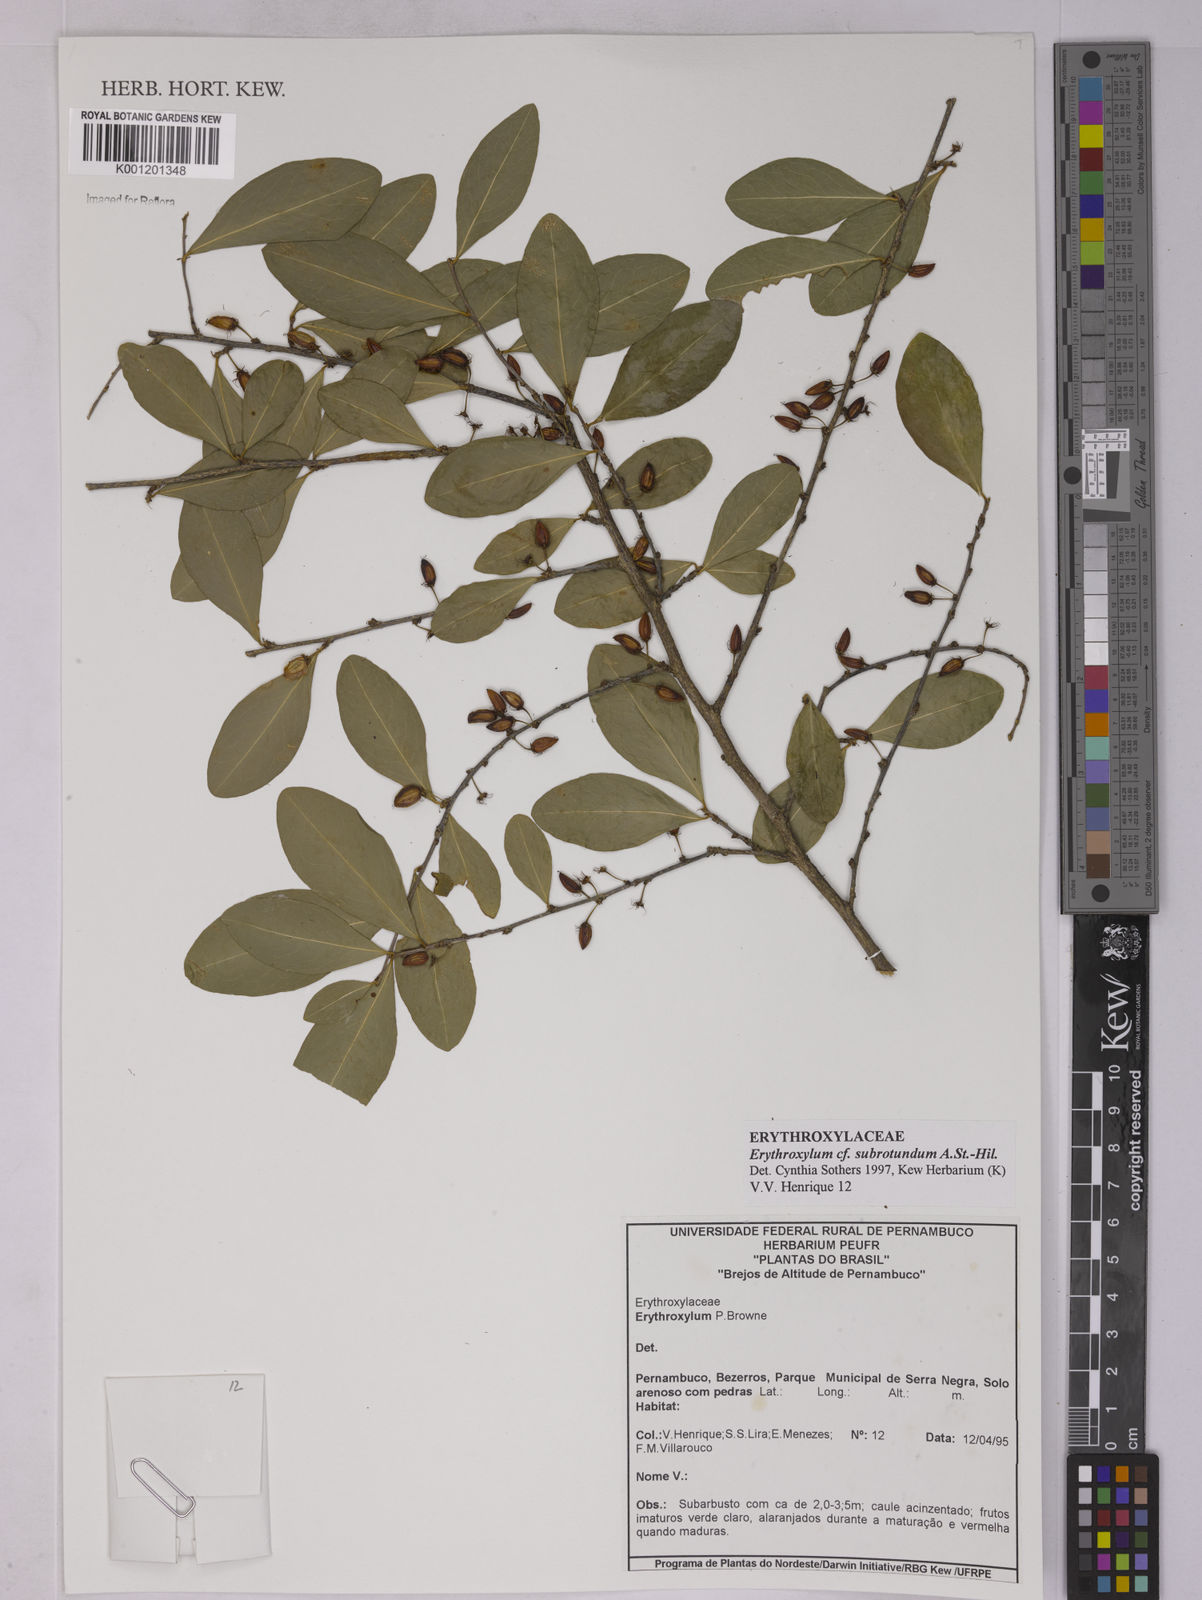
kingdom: Plantae
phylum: Tracheophyta
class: Magnoliopsida
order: Malpighiales
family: Erythroxylaceae
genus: Erythroxylum
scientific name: Erythroxylum subrotundum
